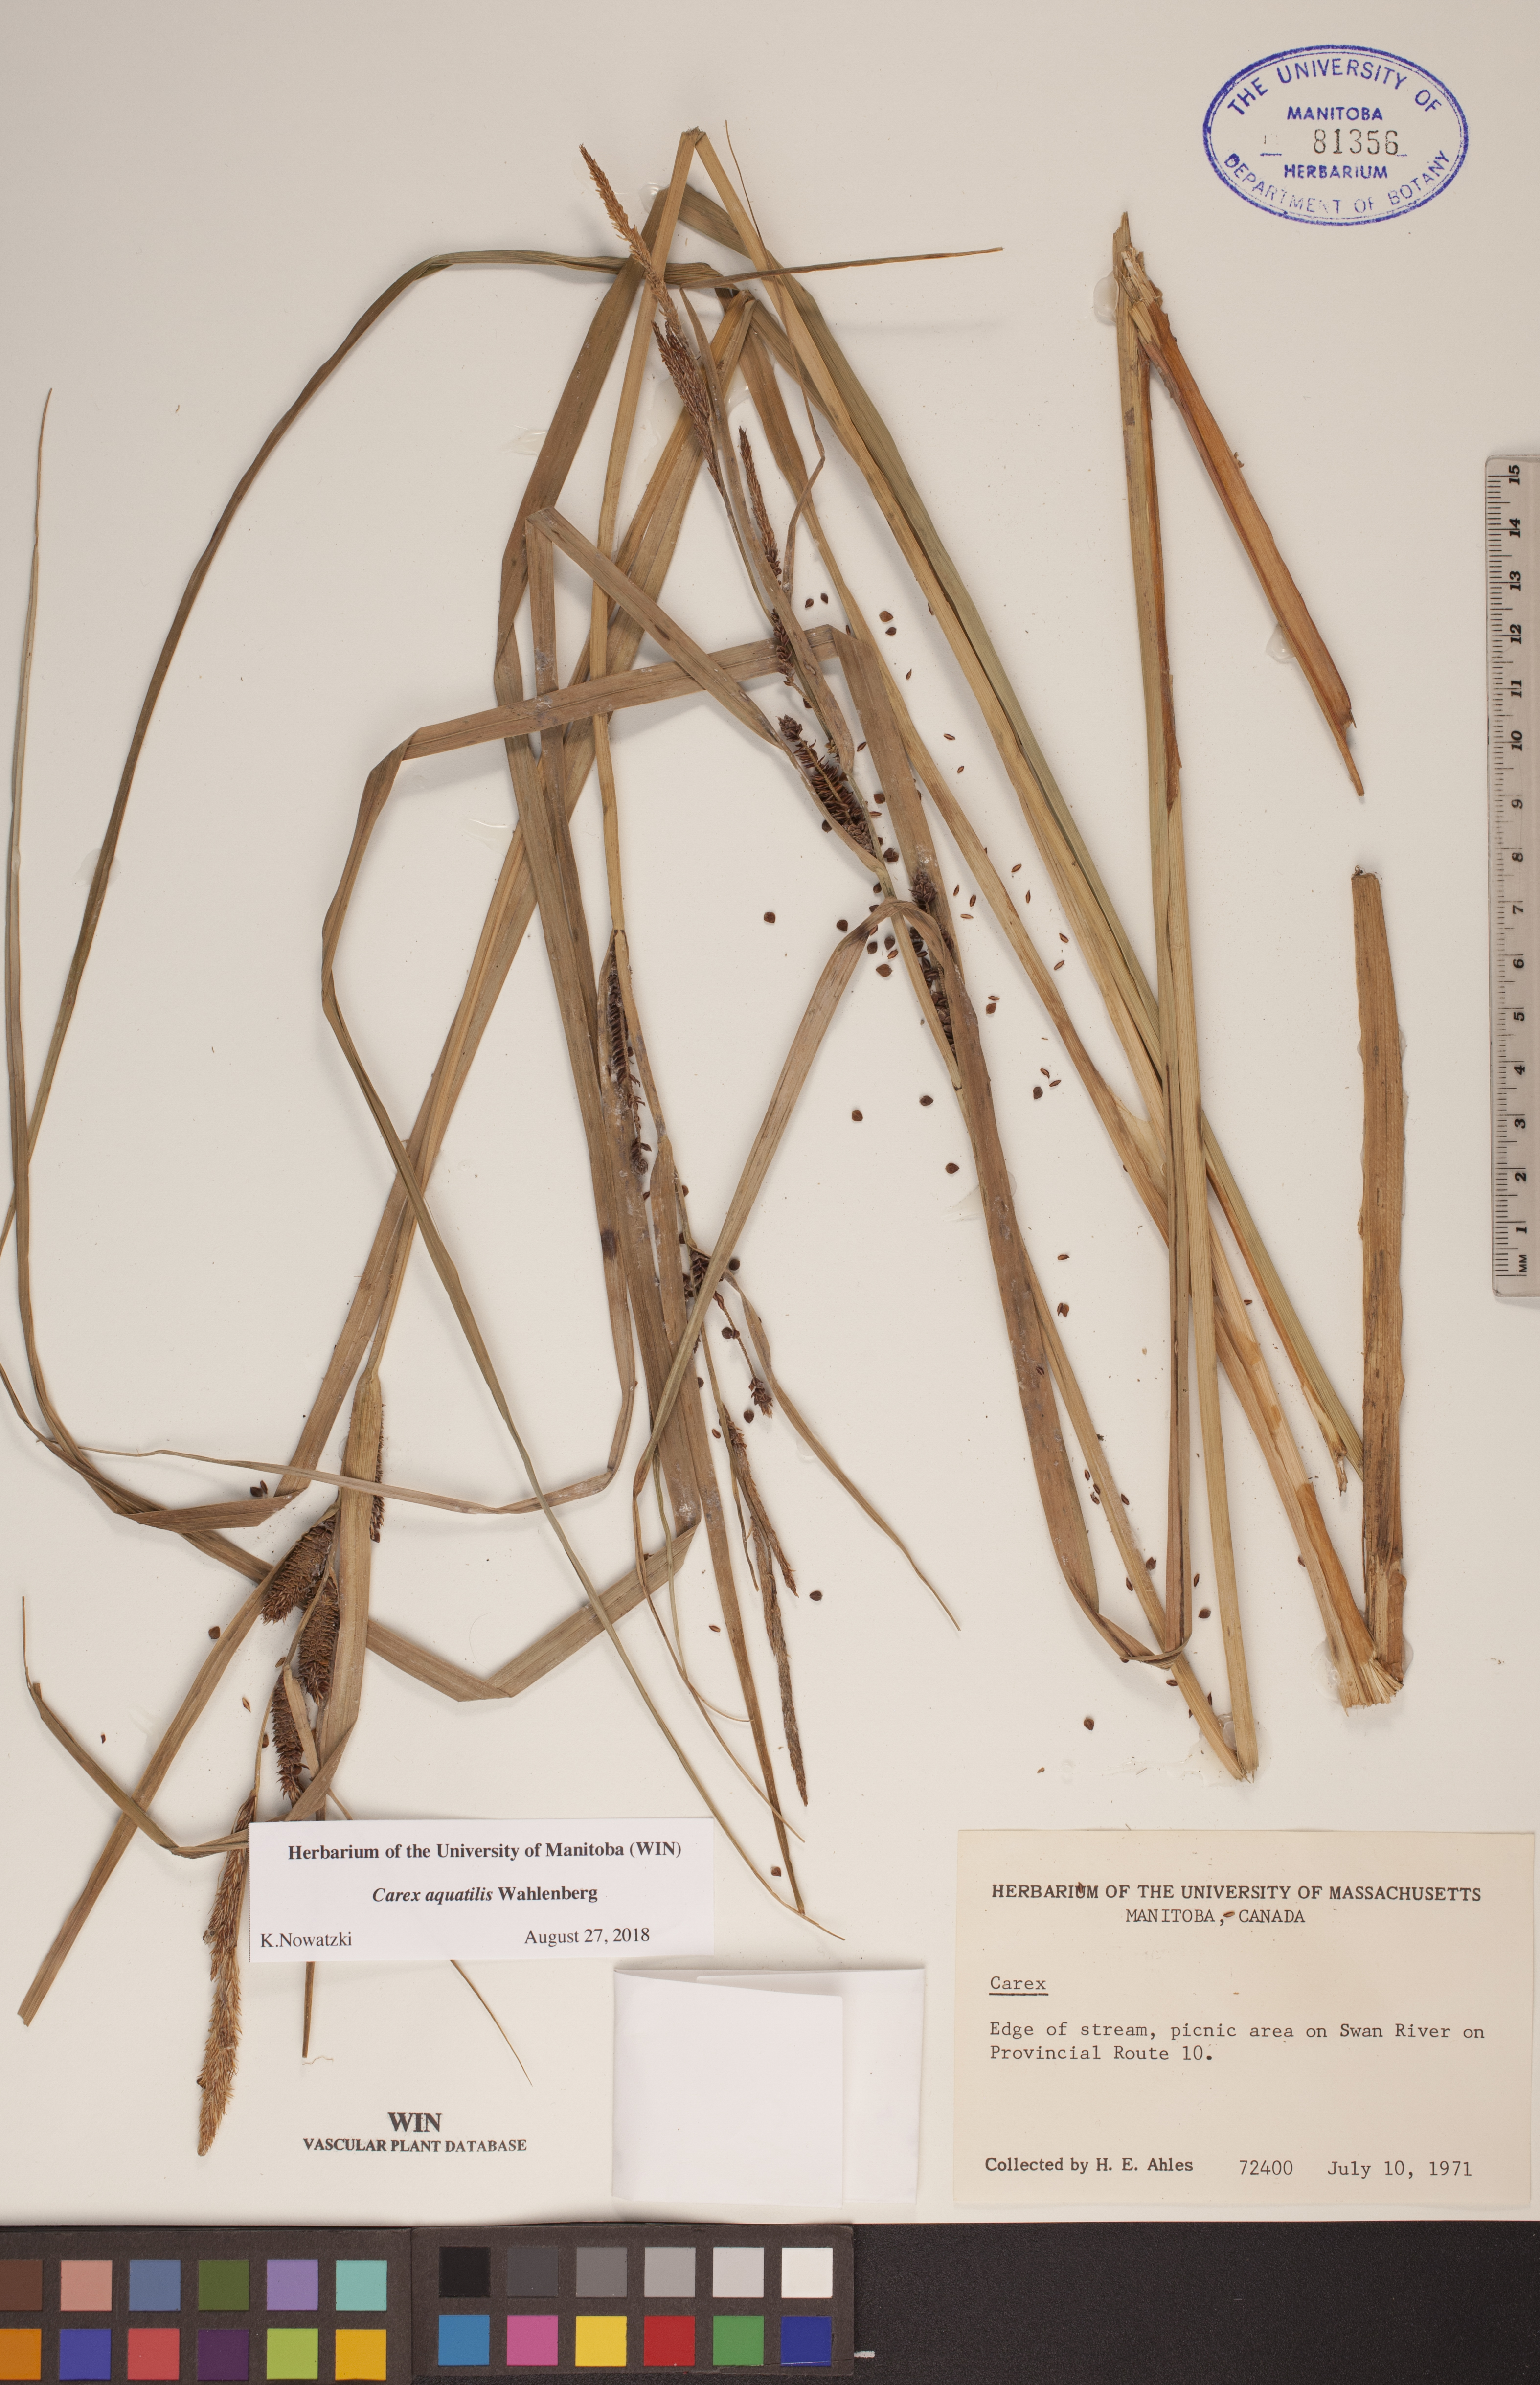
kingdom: Plantae
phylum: Tracheophyta
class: Liliopsida
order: Poales
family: Cyperaceae
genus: Carex
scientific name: Carex aquatilis
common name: Water sedge
